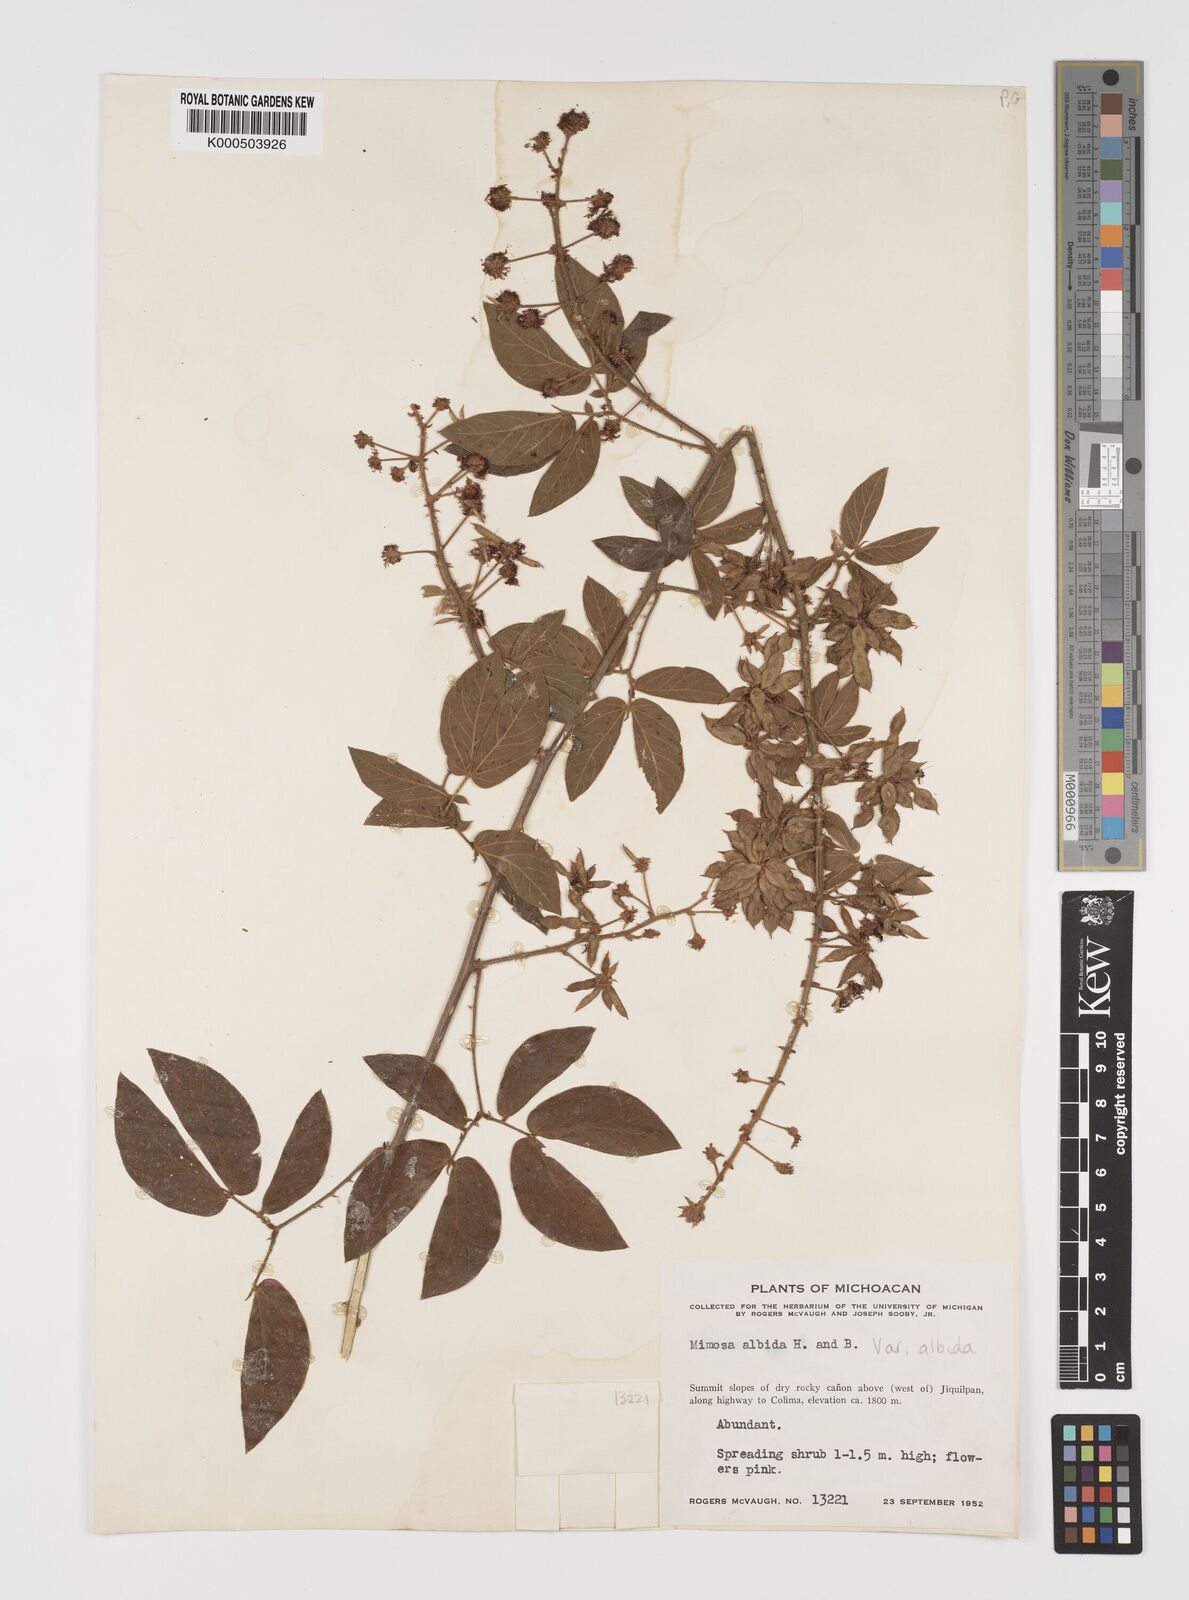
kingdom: Plantae
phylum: Tracheophyta
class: Magnoliopsida
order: Fabales
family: Fabaceae
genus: Mimosa
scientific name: Mimosa albida
